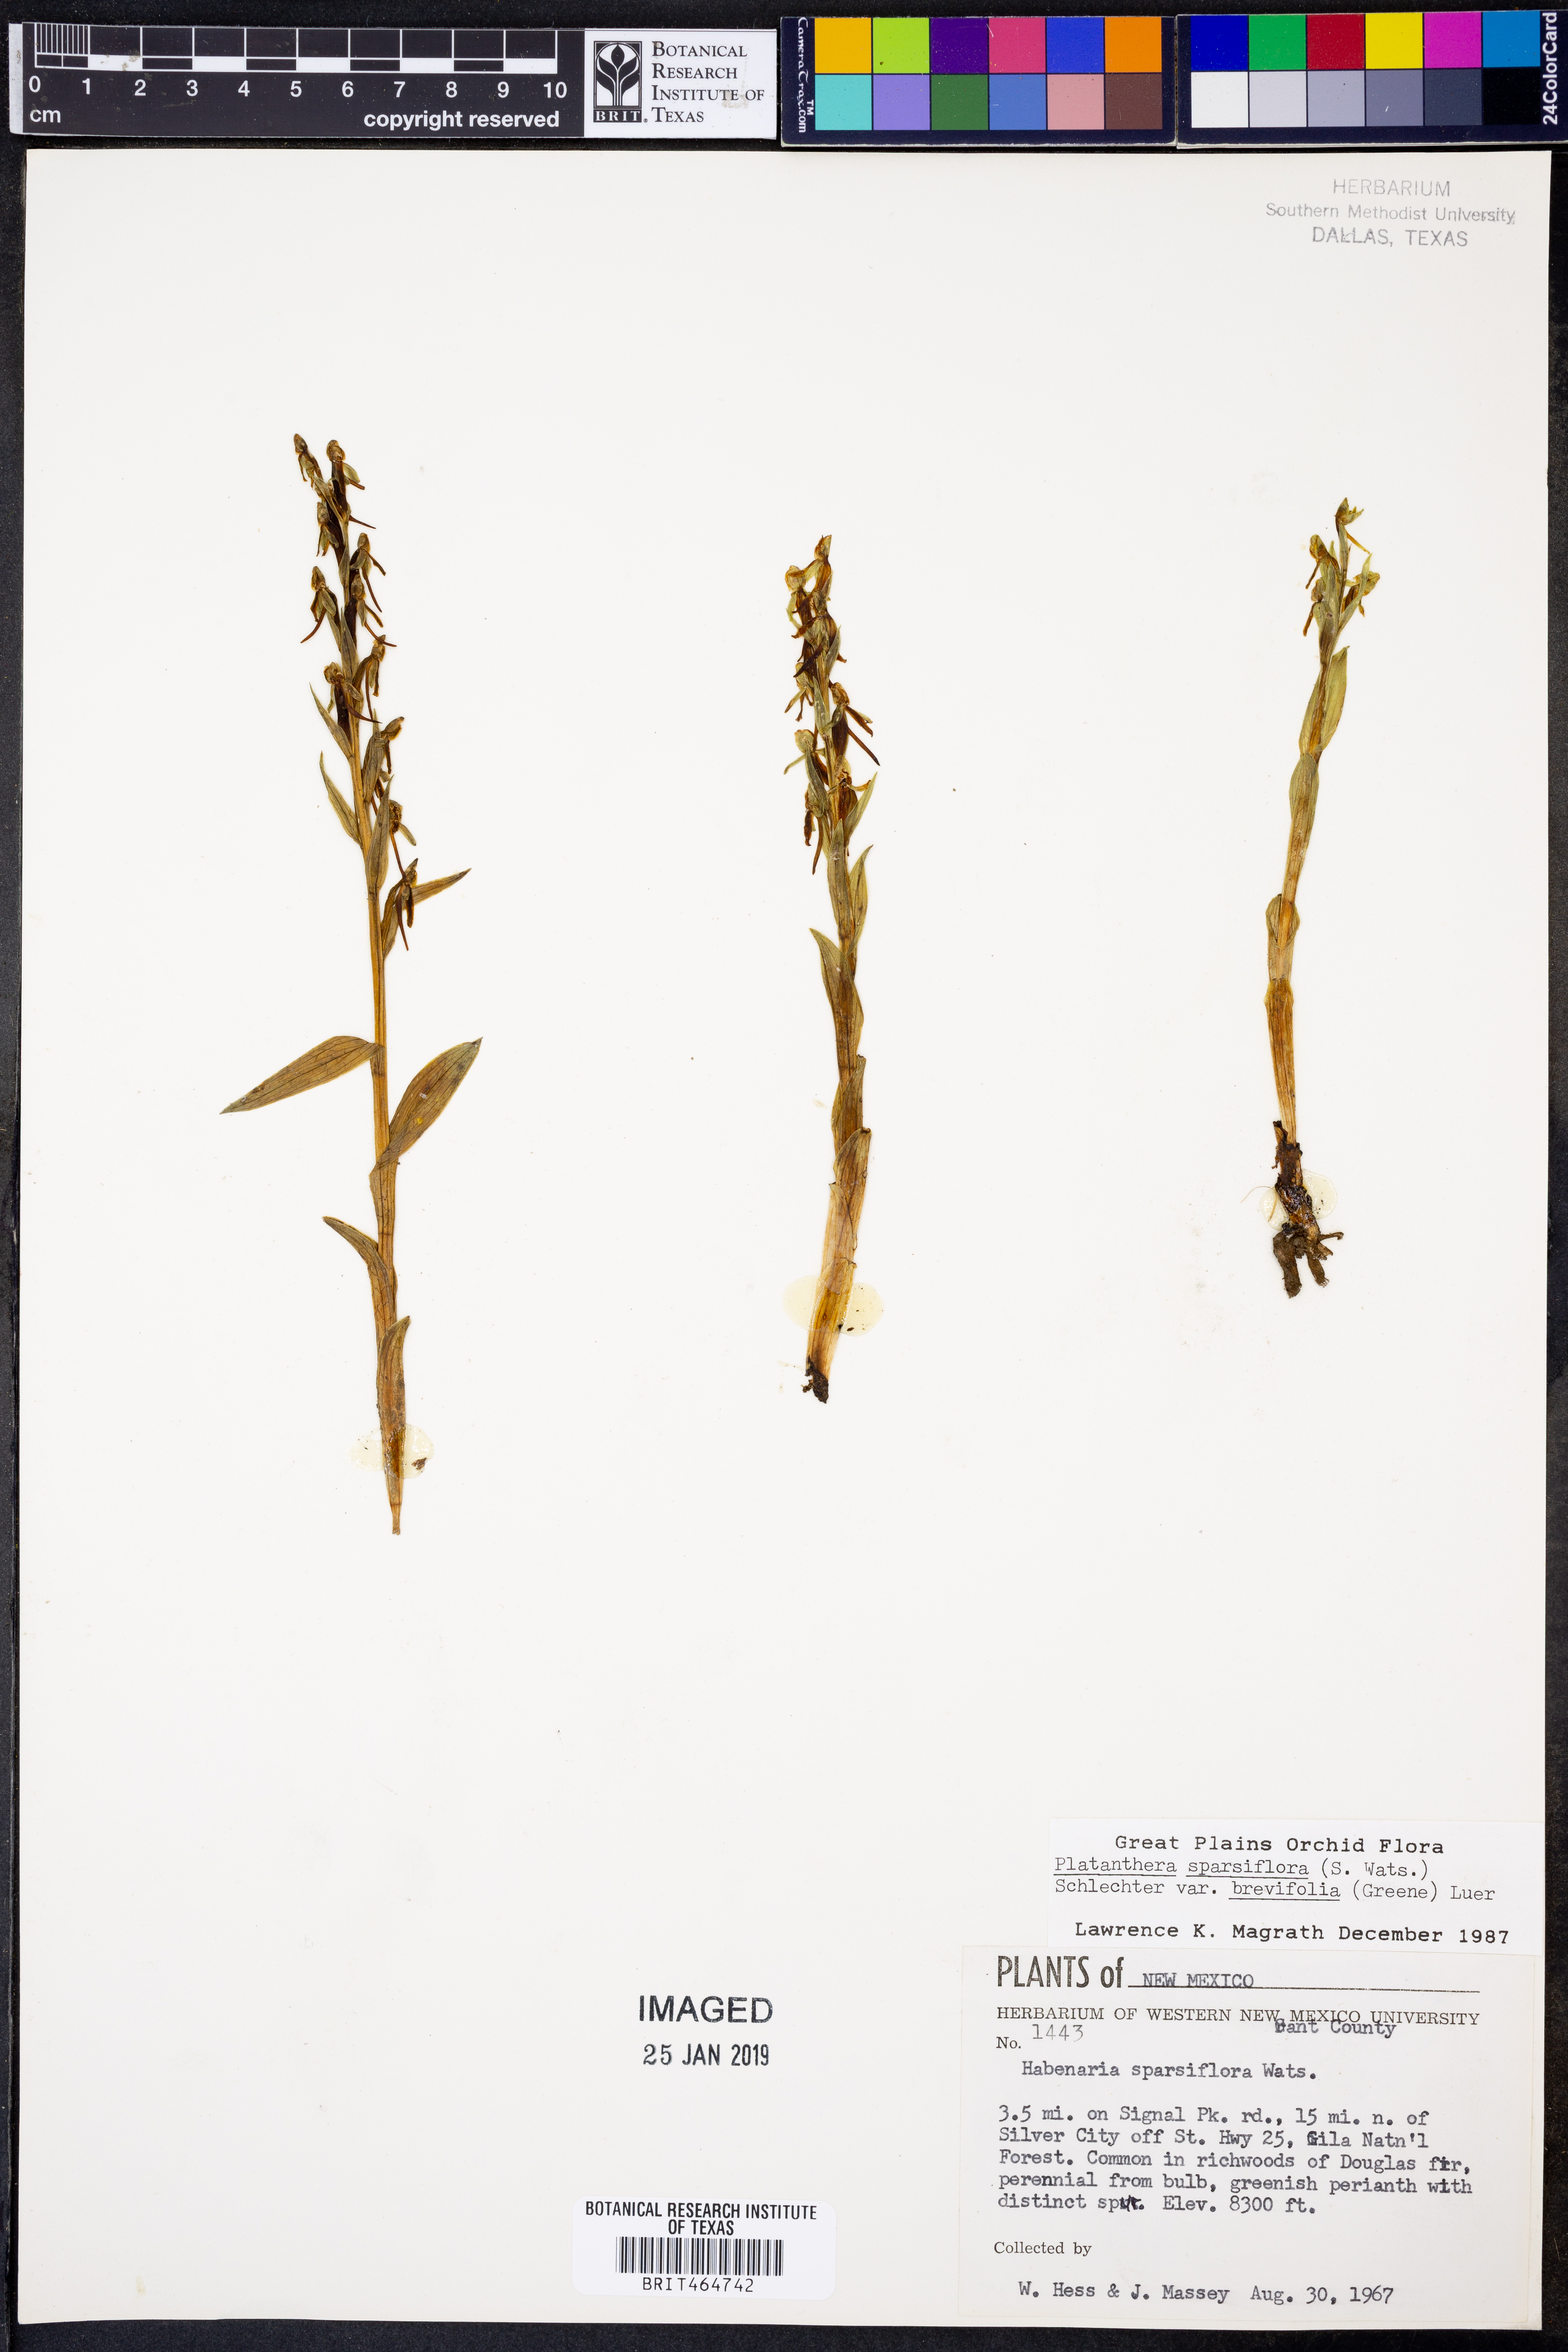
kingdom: Plantae
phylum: Tracheophyta
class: Liliopsida
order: Asparagales
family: Orchidaceae
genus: Platanthera
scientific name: Platanthera brevifolia
